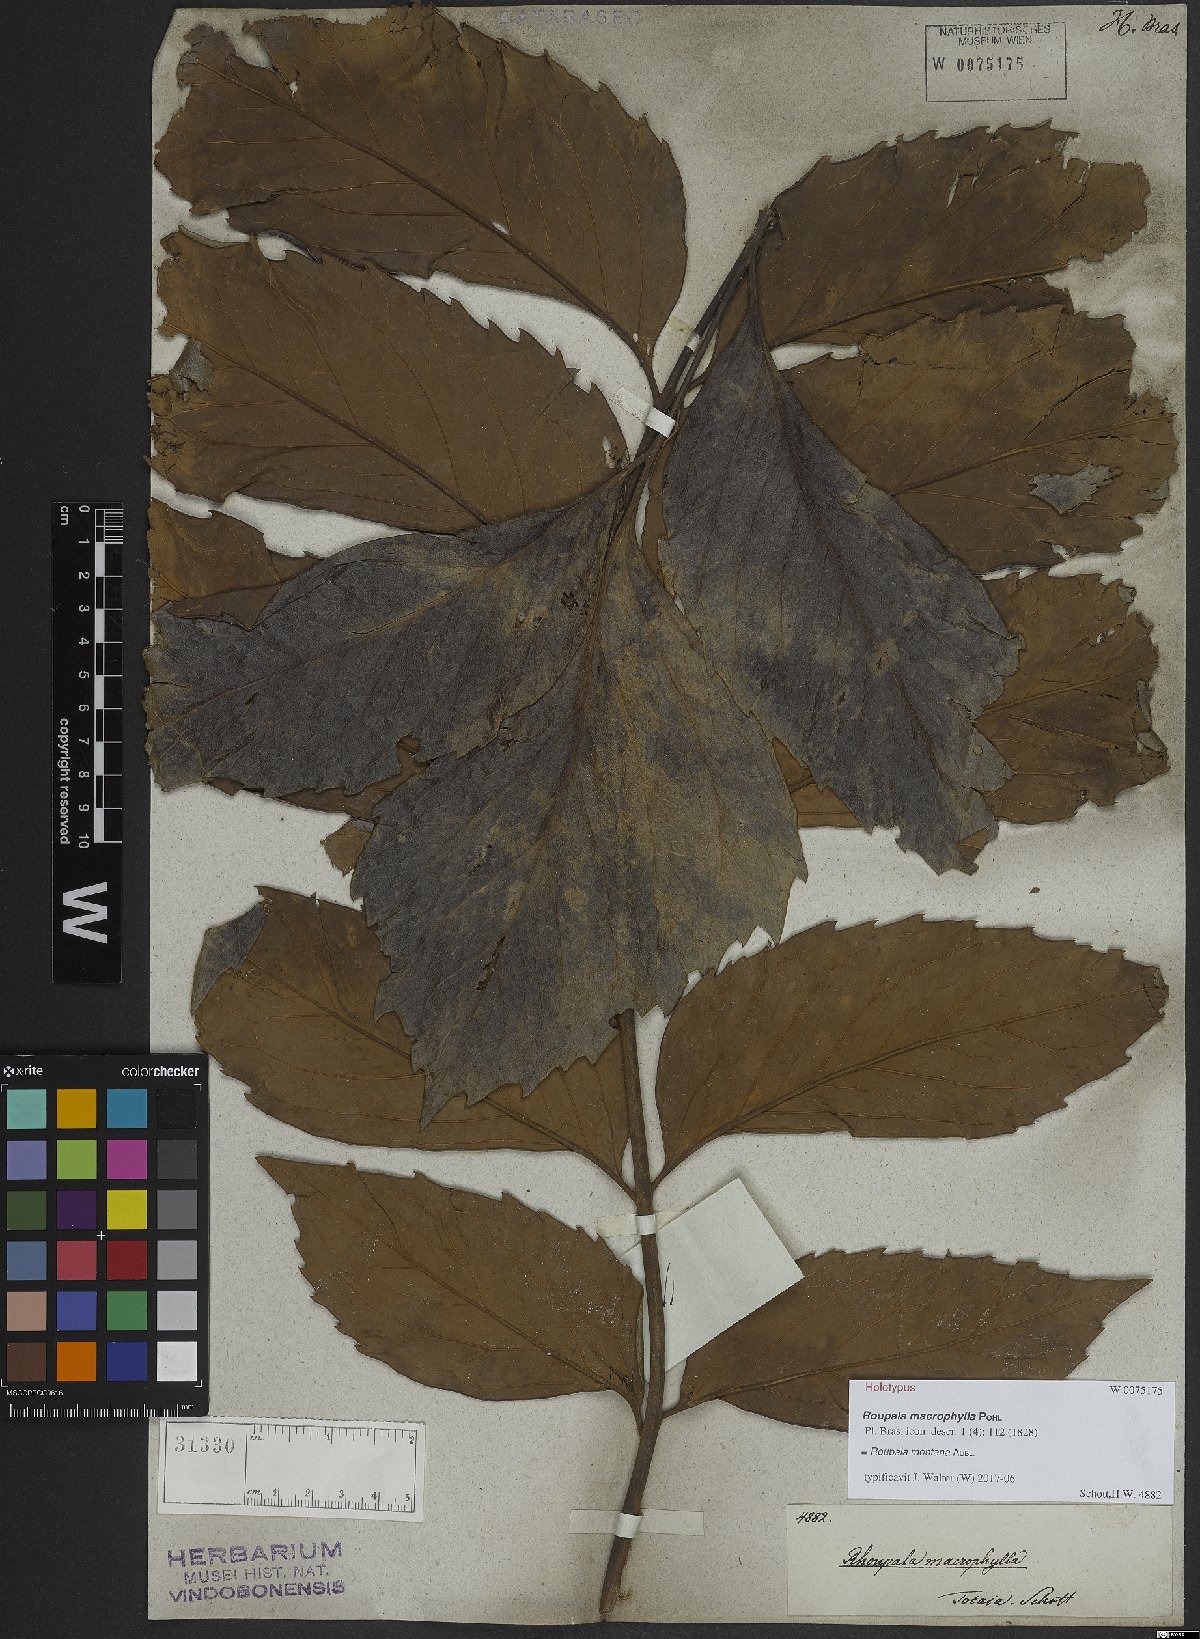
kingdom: Plantae
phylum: Tracheophyta
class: Magnoliopsida
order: Proteales
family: Proteaceae
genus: Roupala
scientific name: Roupala montana
